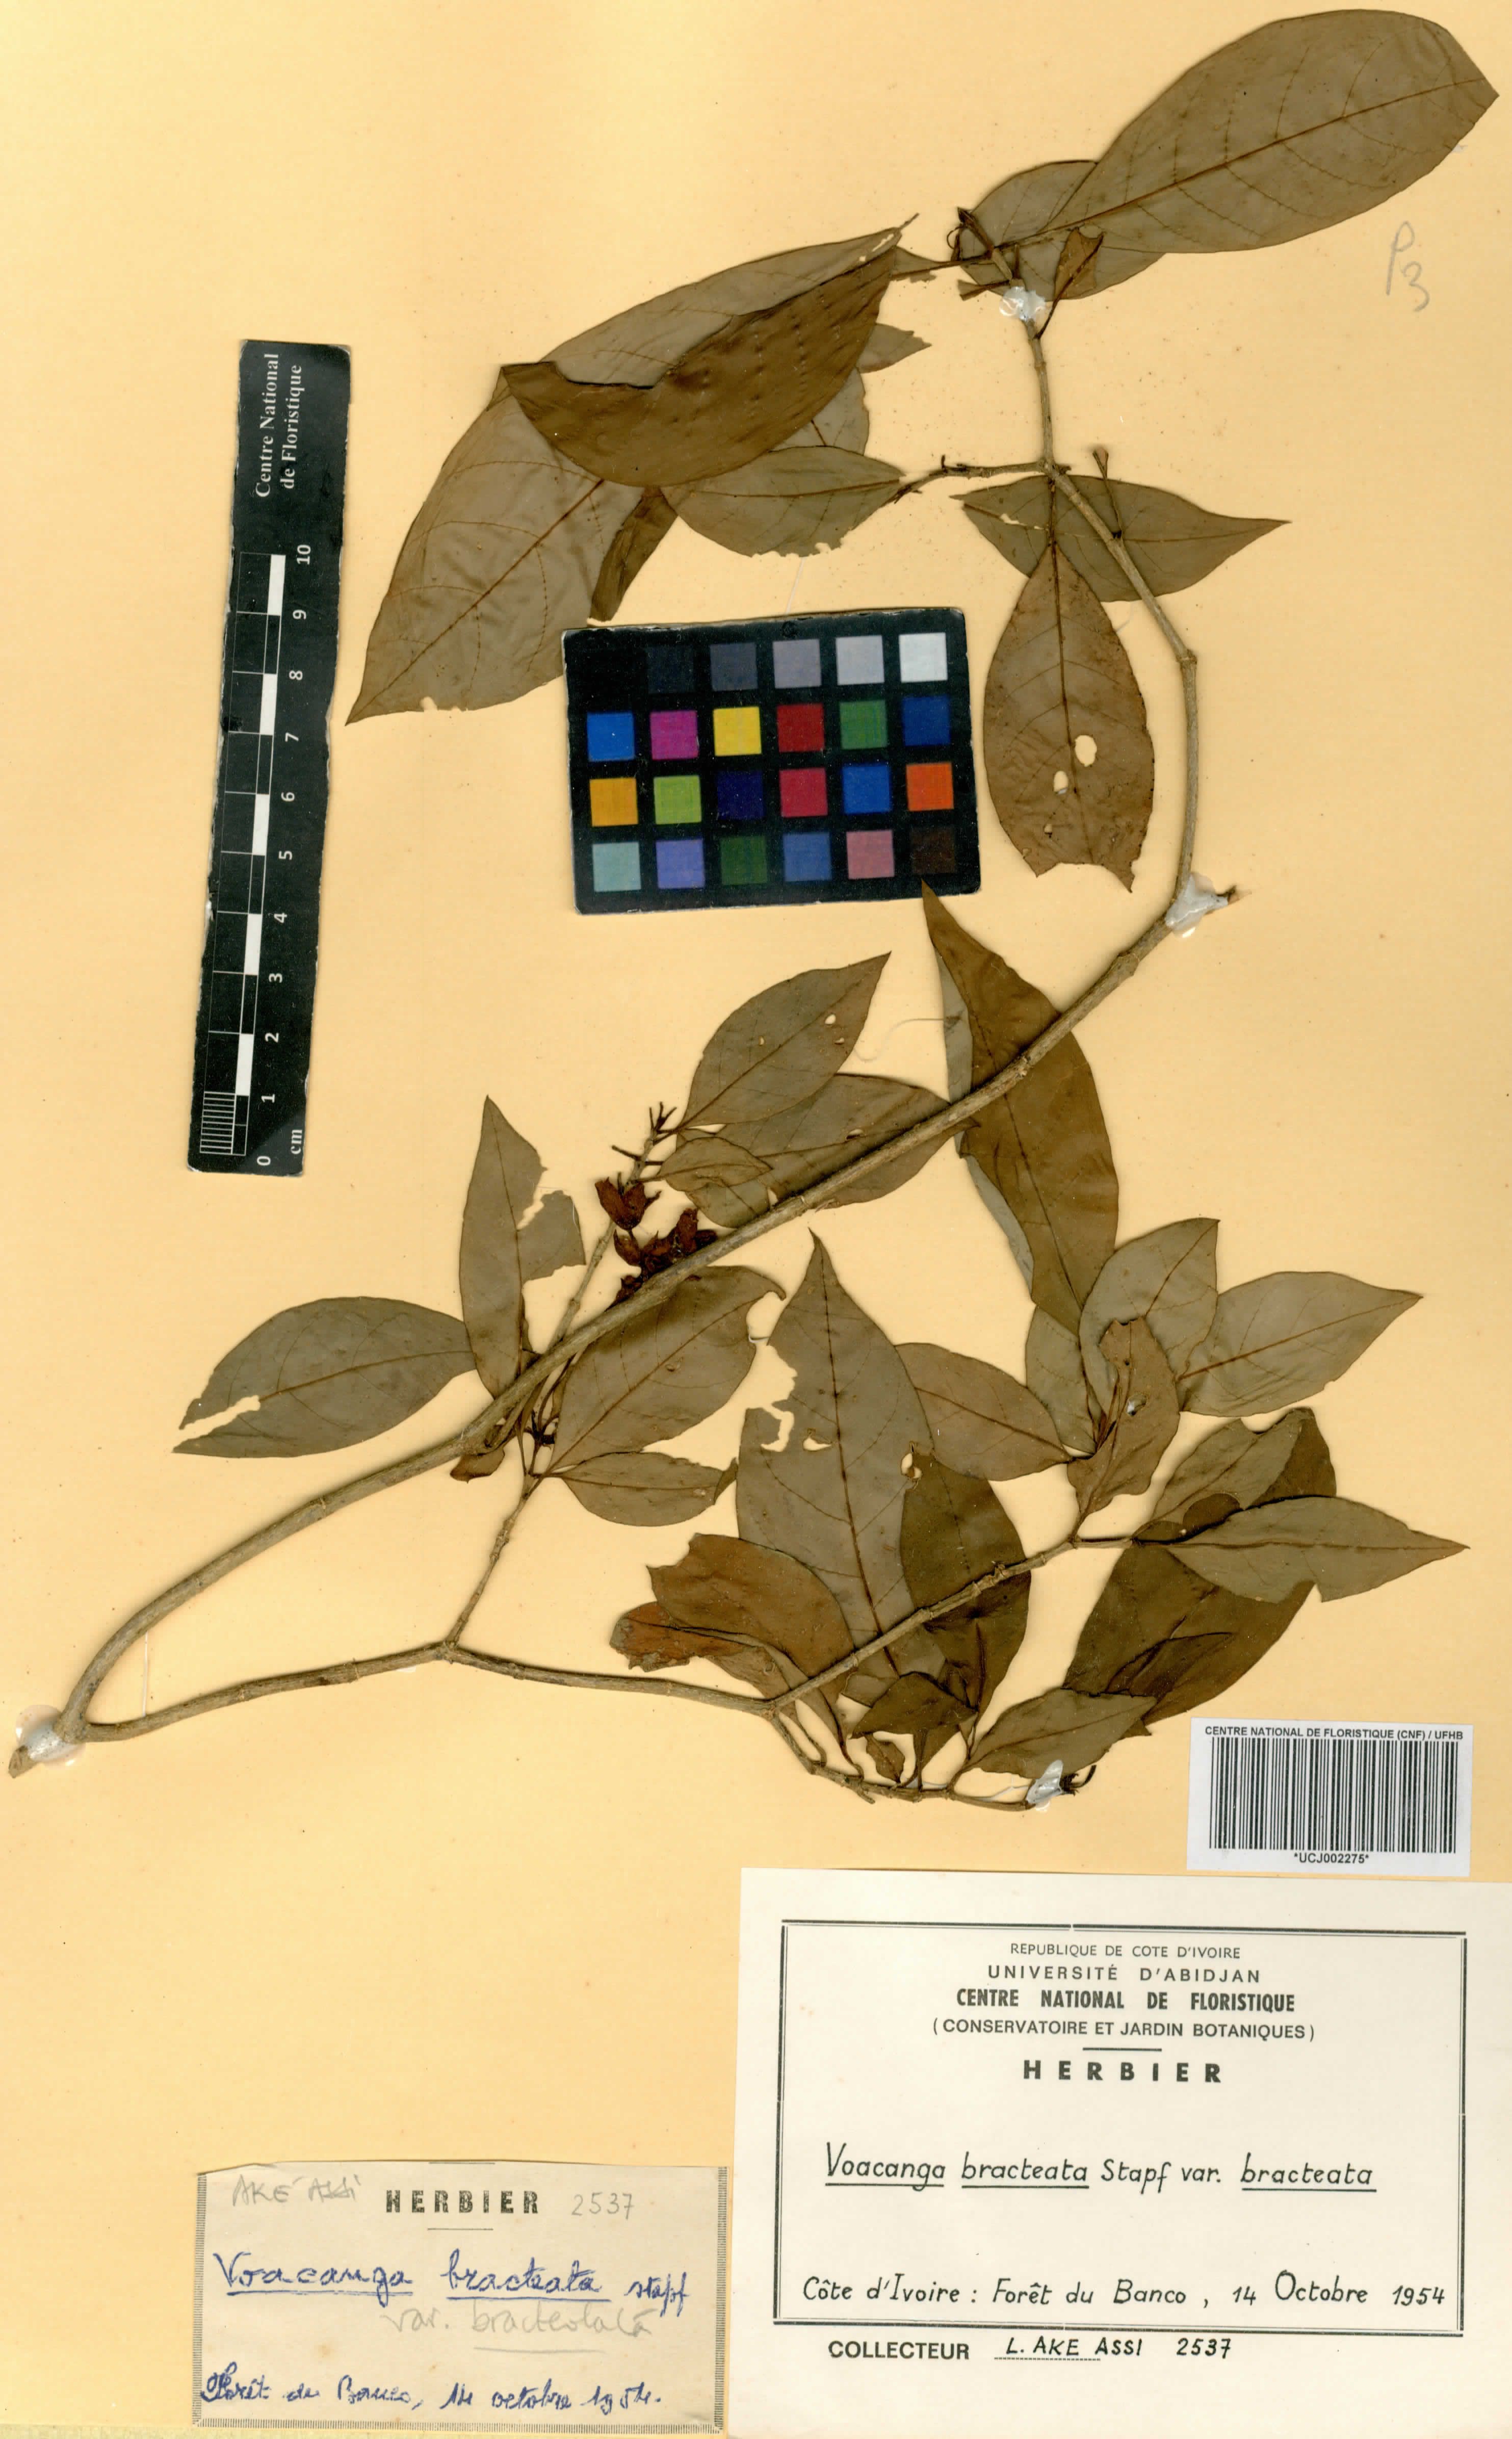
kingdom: Plantae
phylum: Tracheophyta
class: Magnoliopsida
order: Gentianales
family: Apocynaceae
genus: Voacanga
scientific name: Voacanga bracteata
